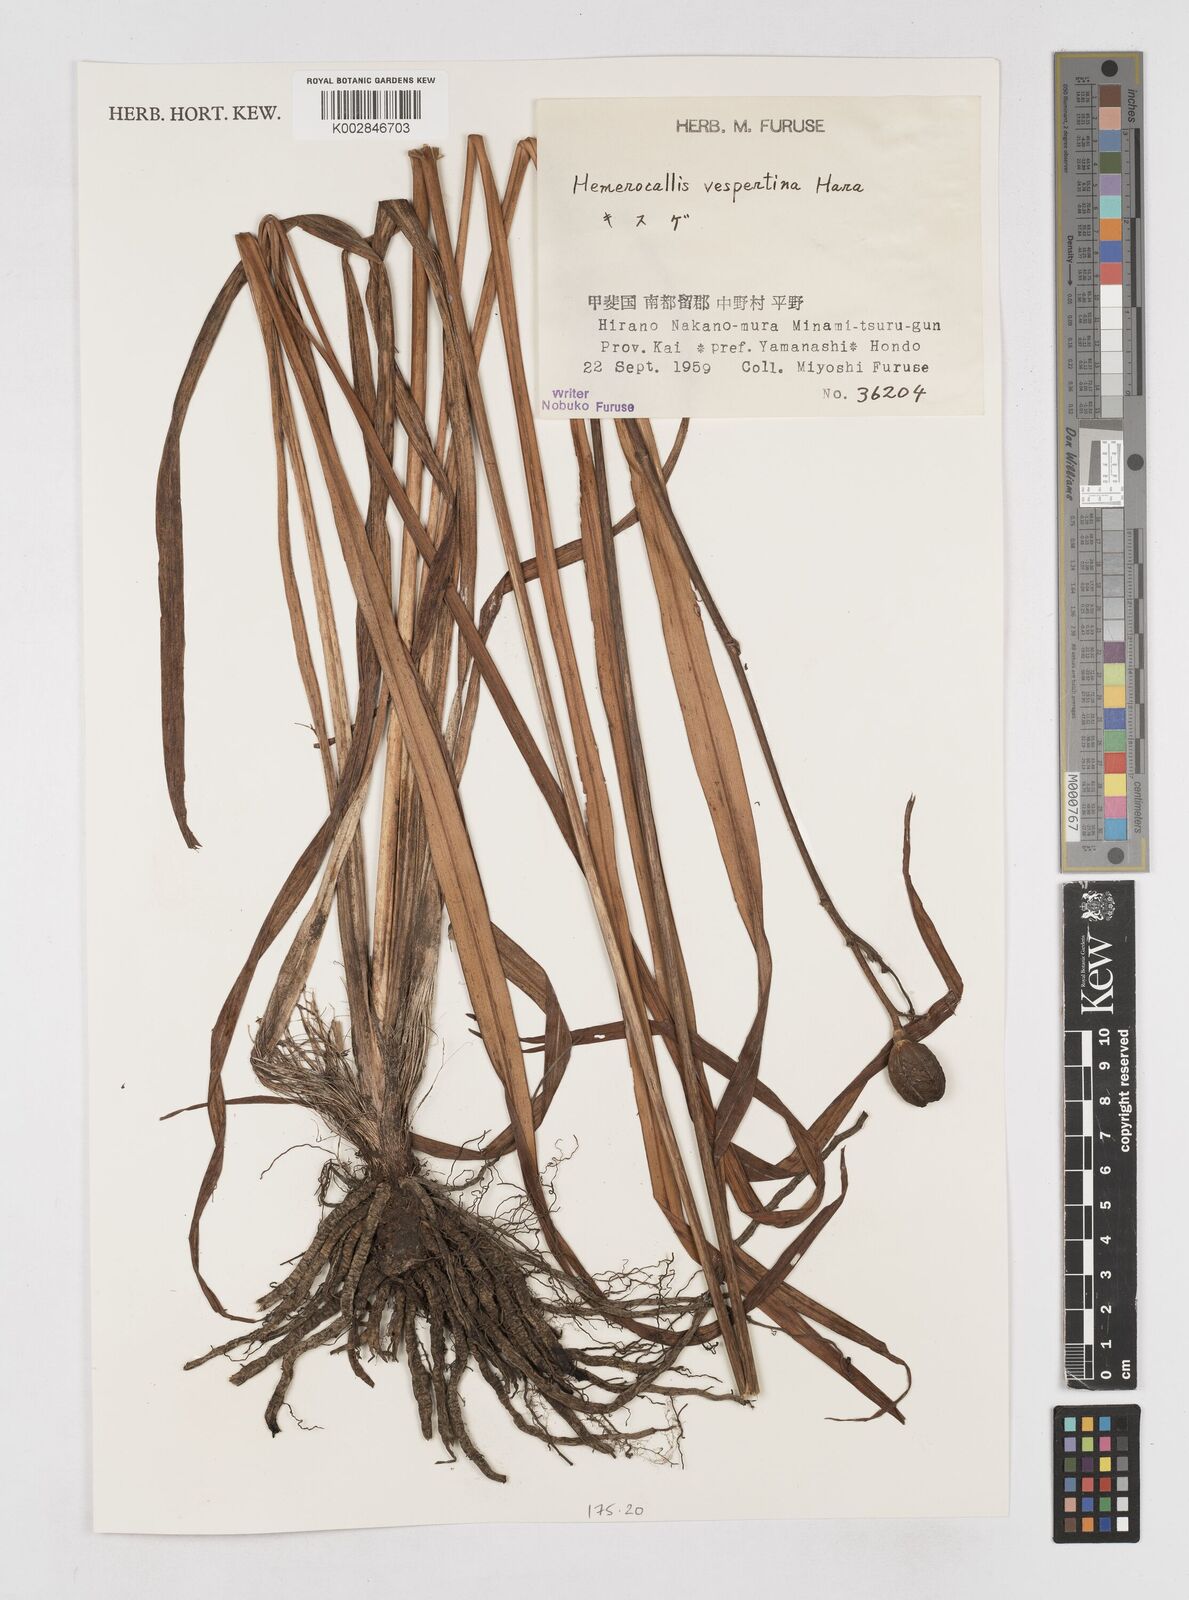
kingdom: Plantae
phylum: Tracheophyta
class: Liliopsida
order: Asparagales
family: Asphodelaceae
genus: Hemerocallis
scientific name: Hemerocallis citrina
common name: Citron day-lily
